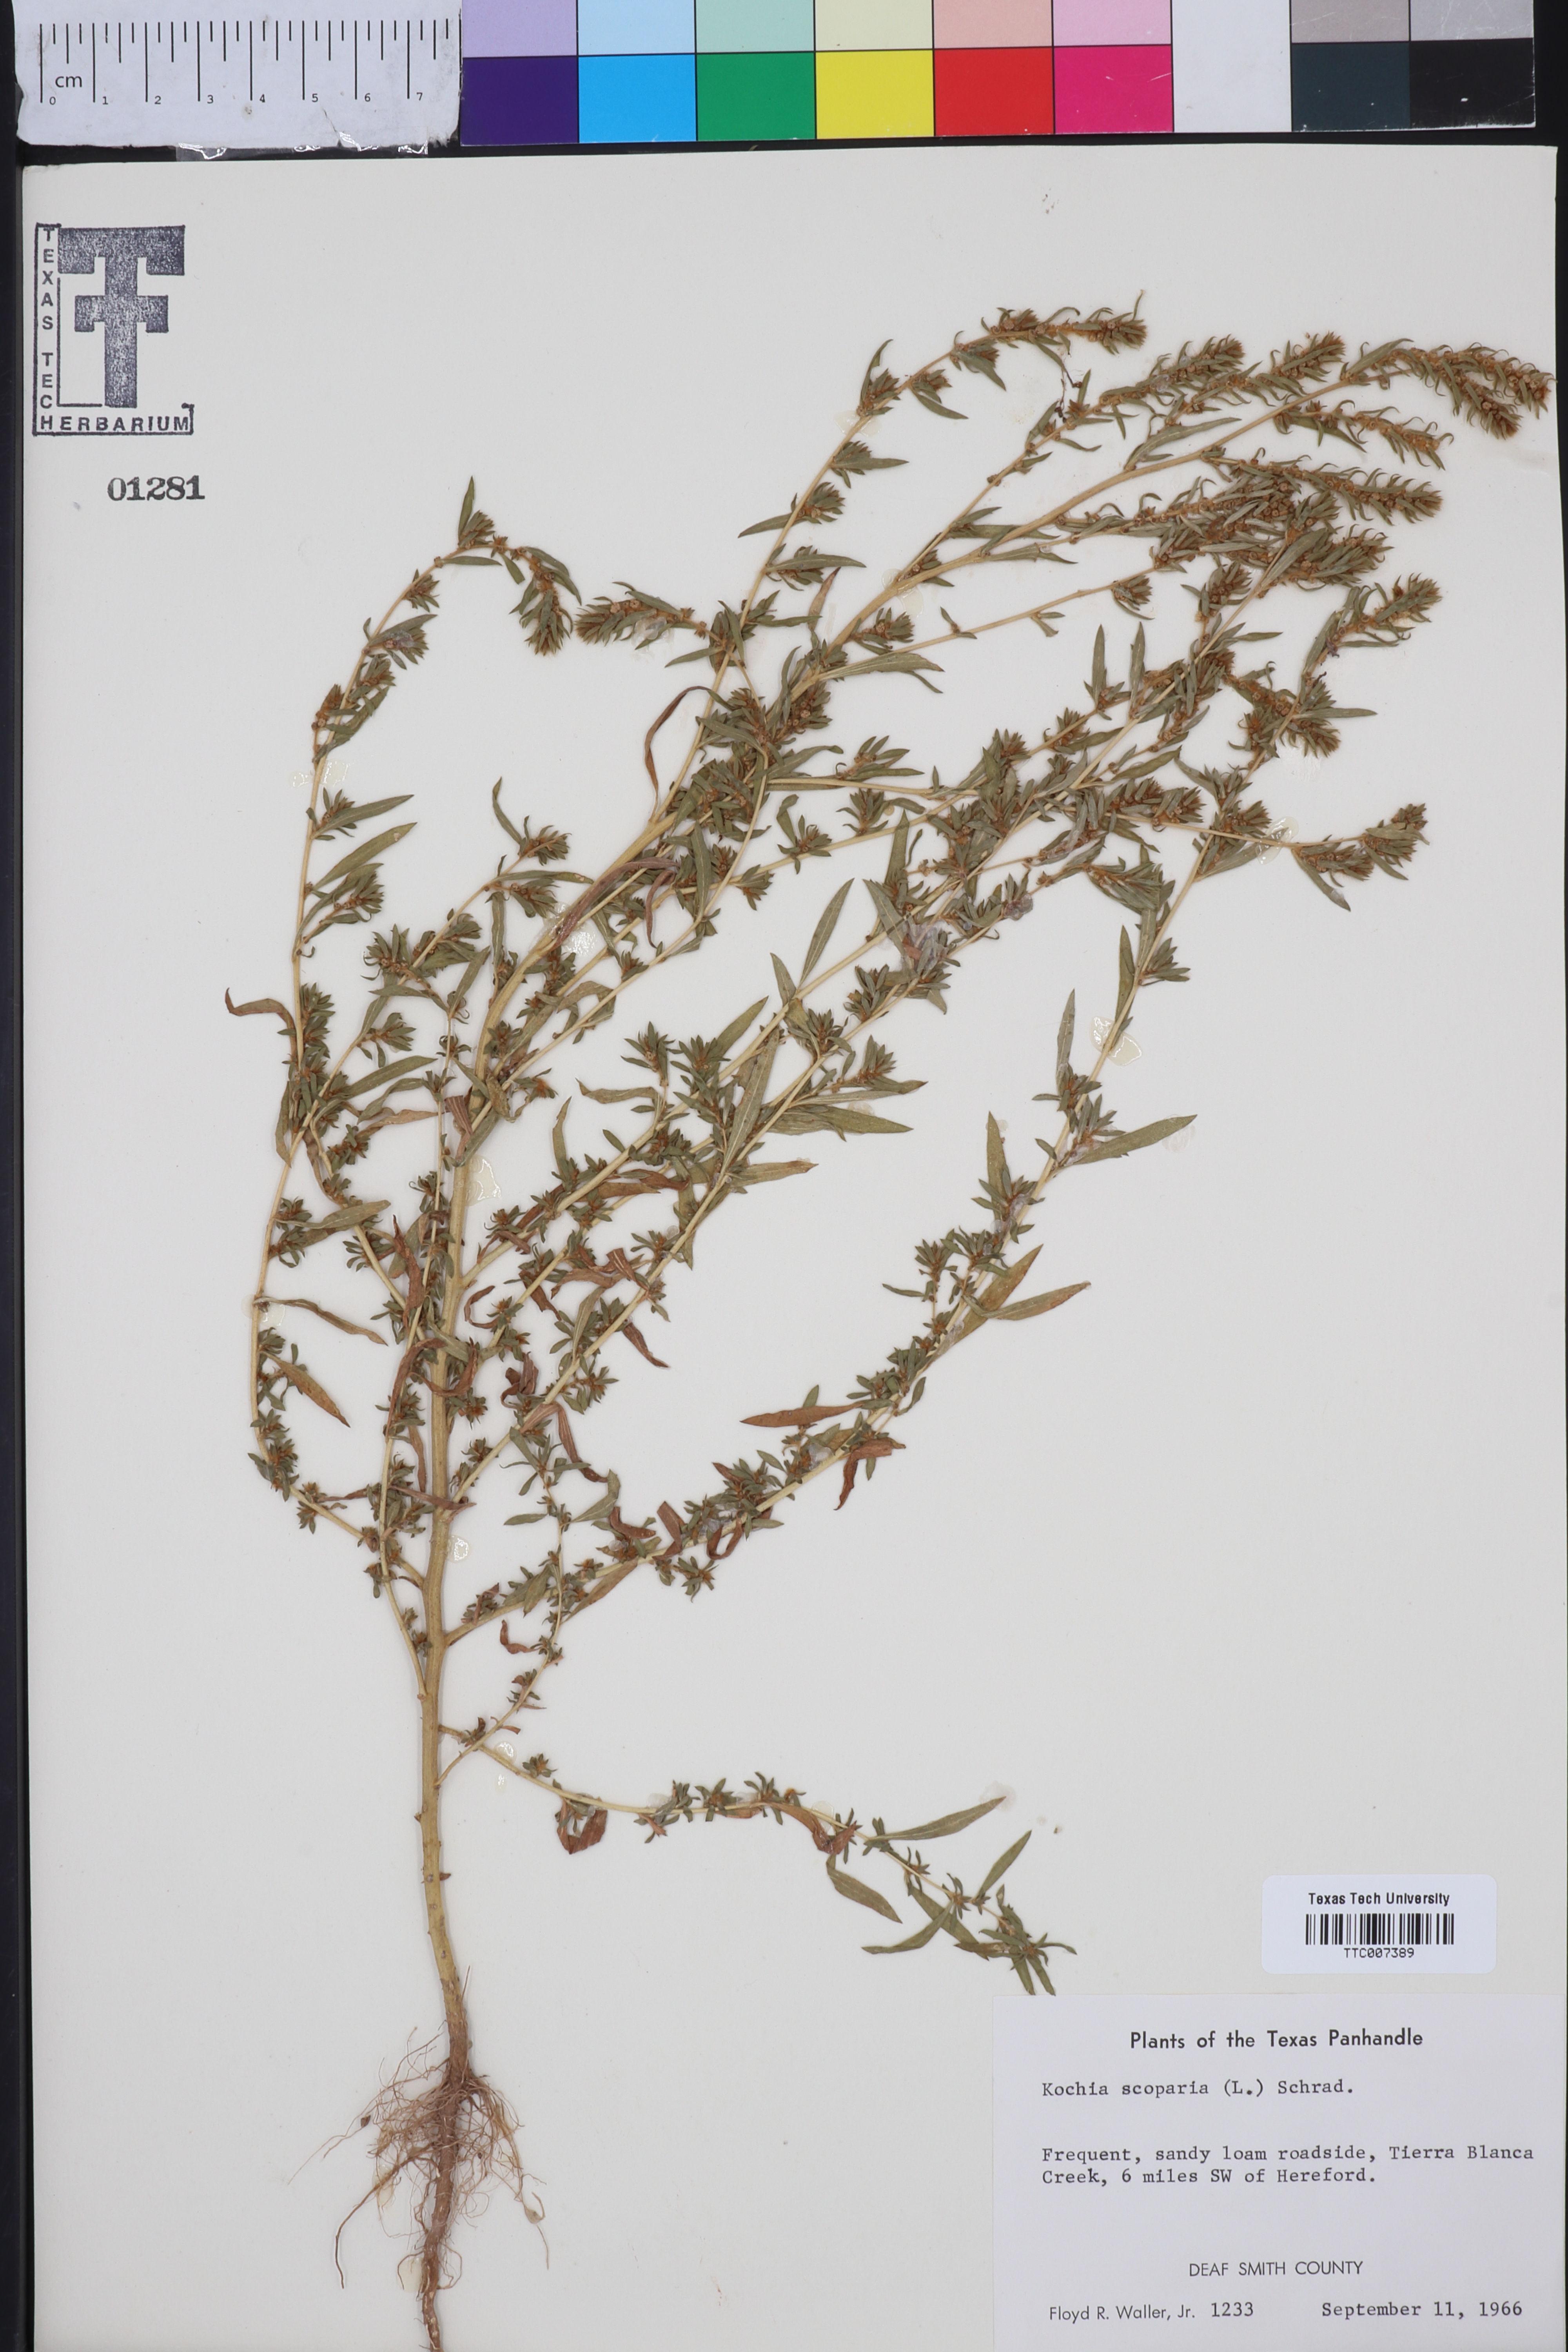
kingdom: Plantae
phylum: Tracheophyta
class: Magnoliopsida
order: Caryophyllales
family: Amaranthaceae
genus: Bassia
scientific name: Bassia scoparia
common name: Belvedere
